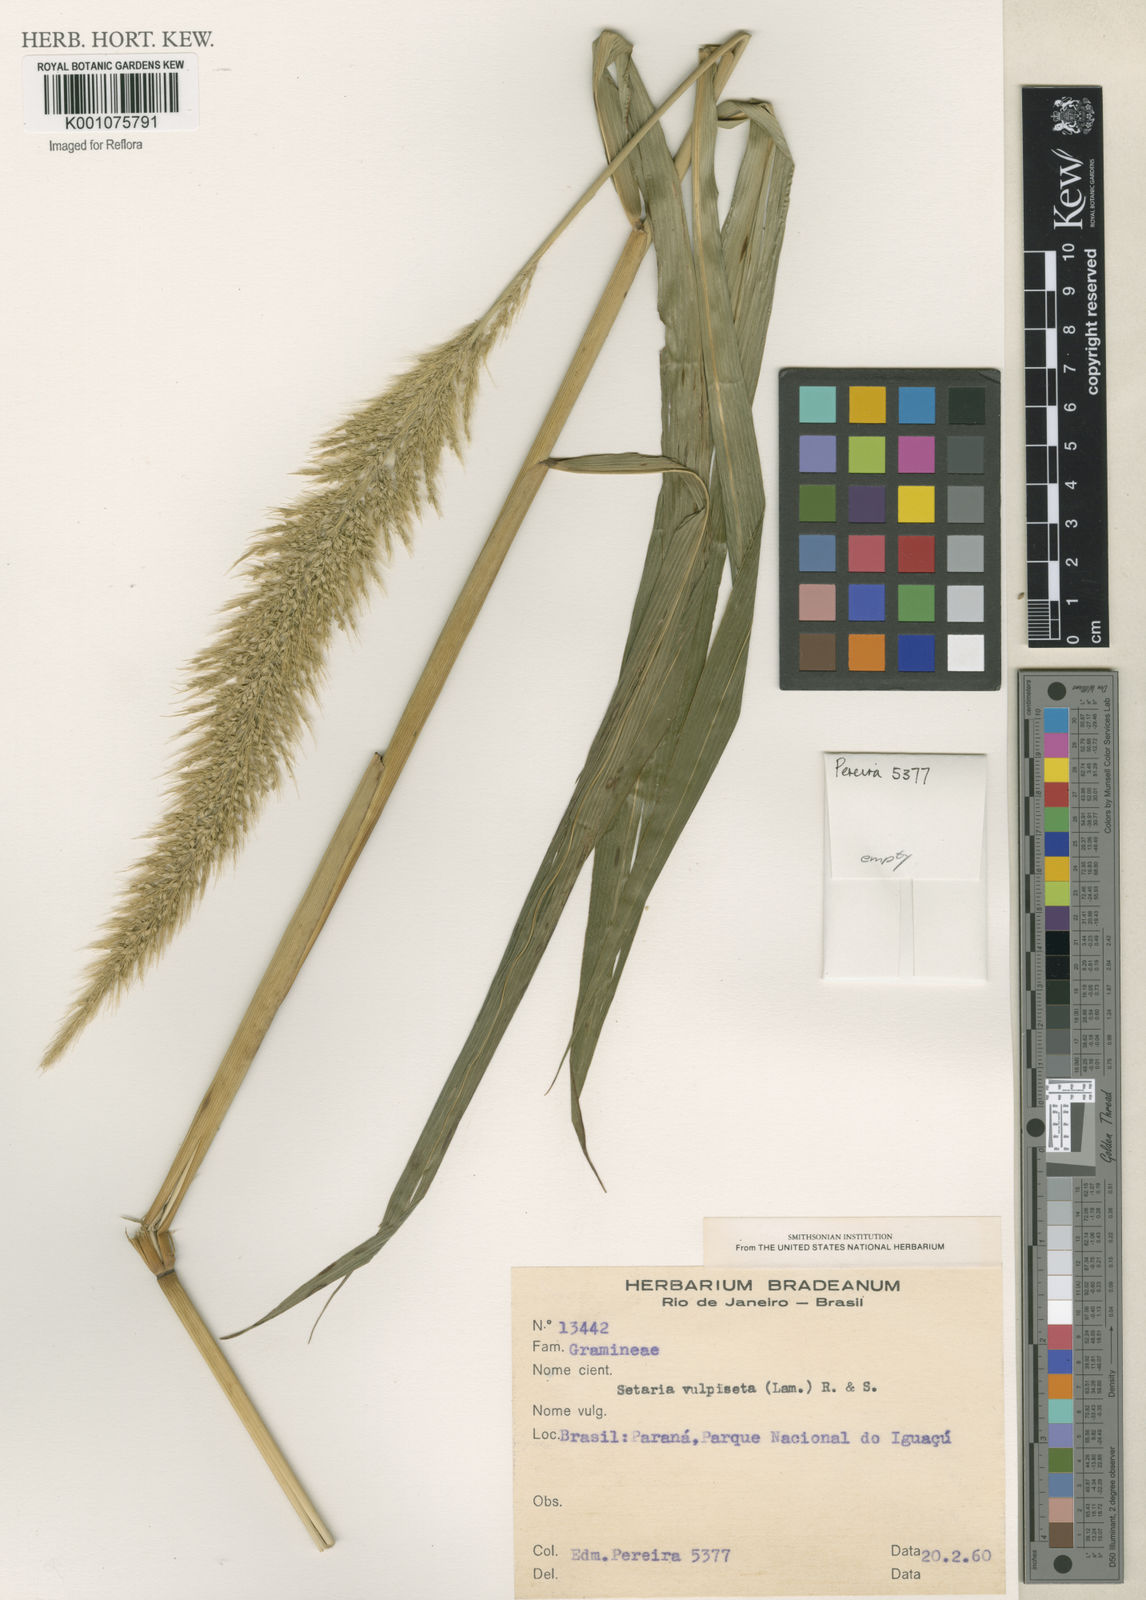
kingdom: Plantae
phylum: Tracheophyta
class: Liliopsida
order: Poales
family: Poaceae
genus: Setaria
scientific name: Setaria vulpiseta
